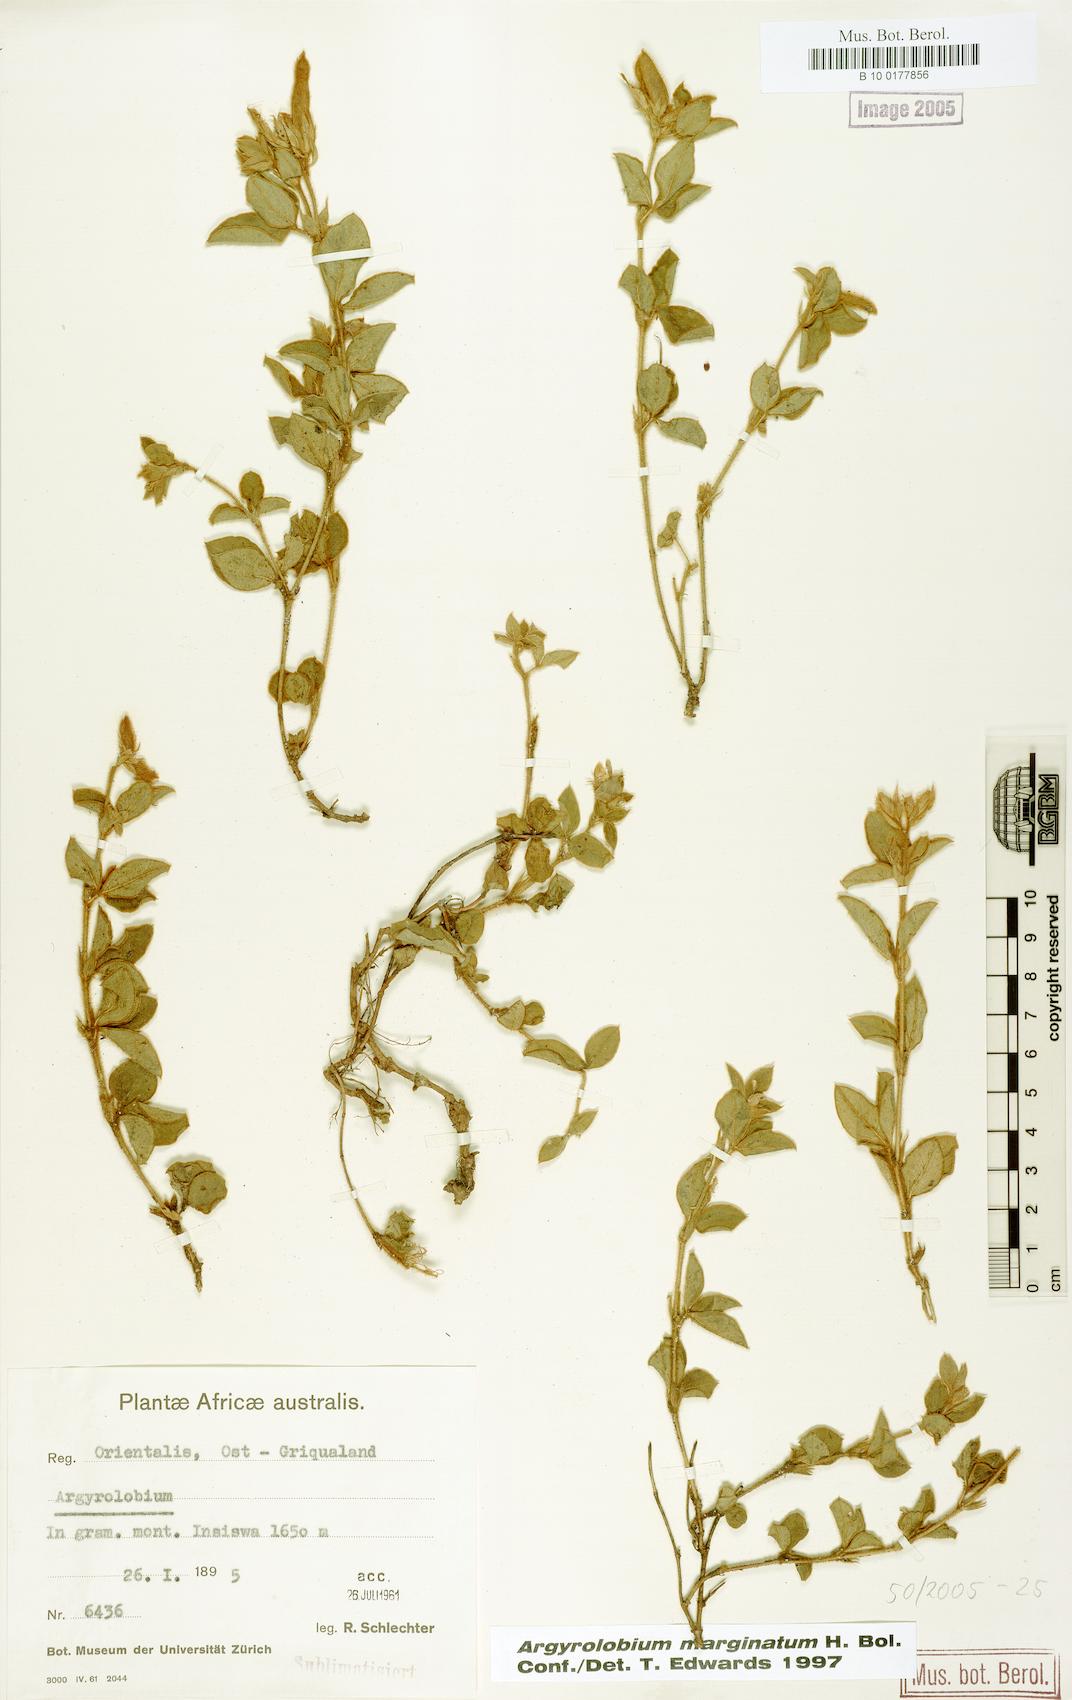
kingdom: Plantae
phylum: Tracheophyta
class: Magnoliopsida
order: Fabales
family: Fabaceae
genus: Argyrolobium
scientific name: Argyrolobium marginatum
